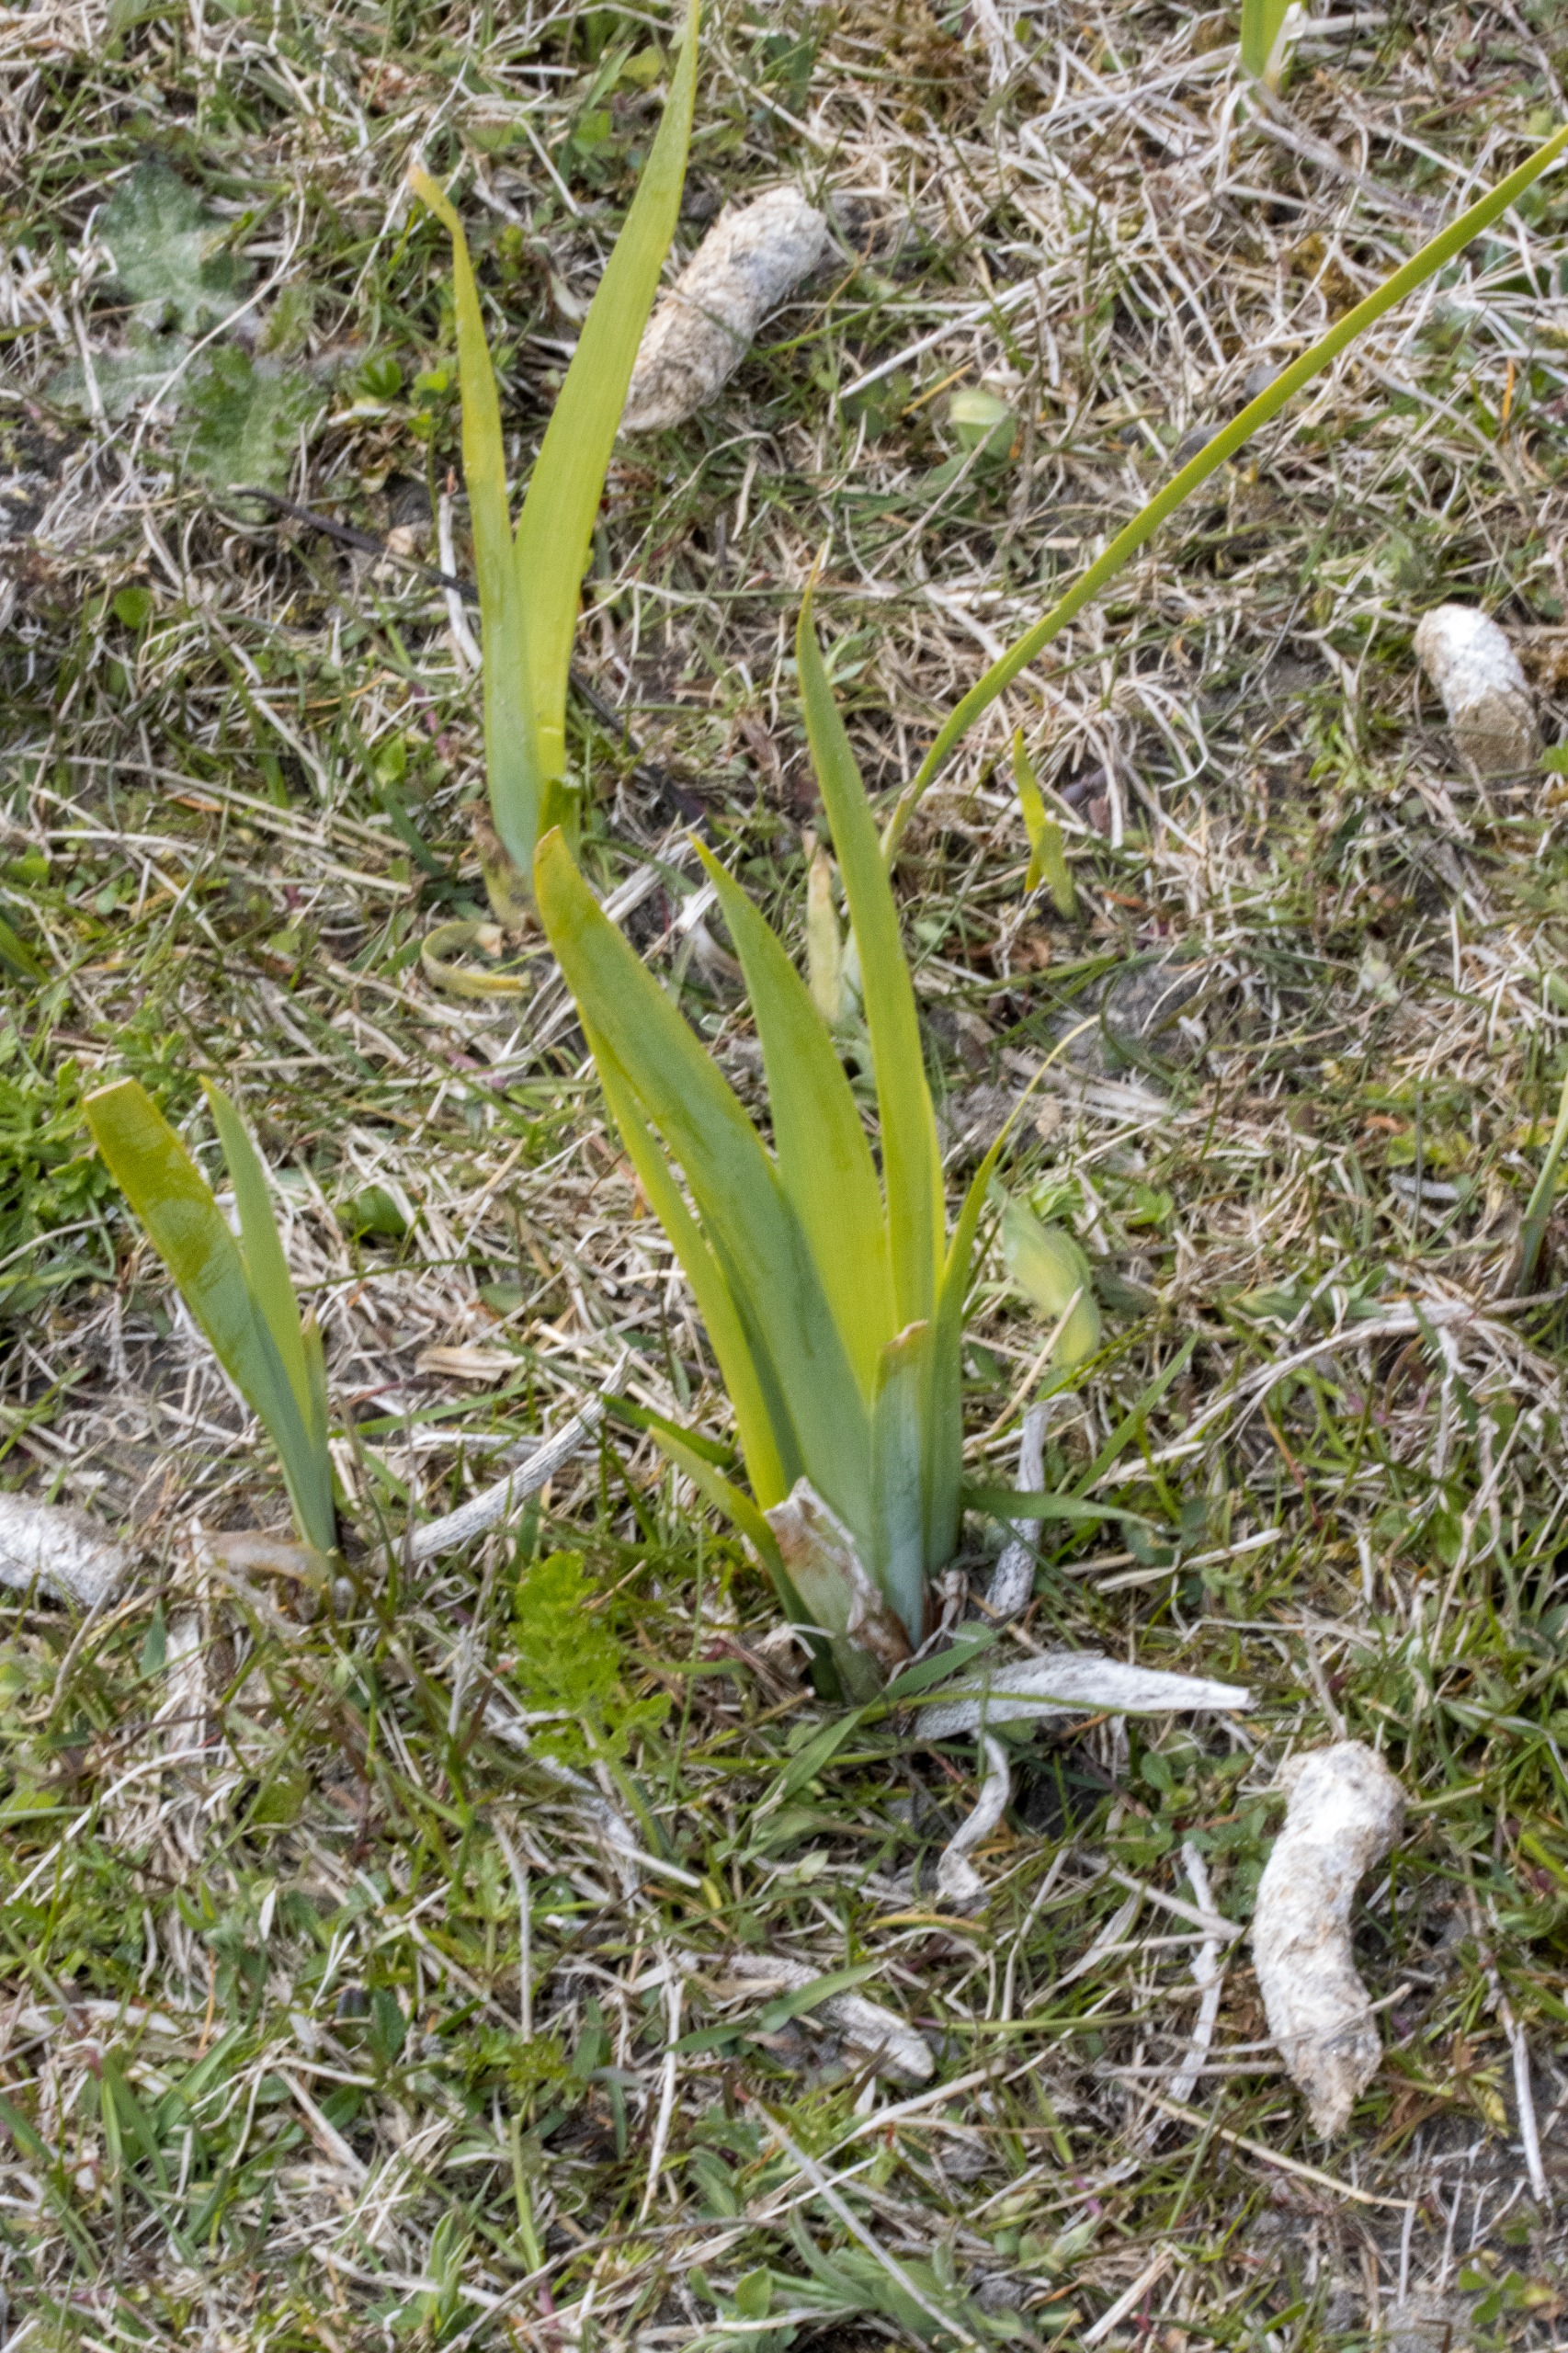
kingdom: Plantae
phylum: Tracheophyta
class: Liliopsida
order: Asparagales
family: Iridaceae
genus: Iris
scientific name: Iris spuria
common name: Blå iris
